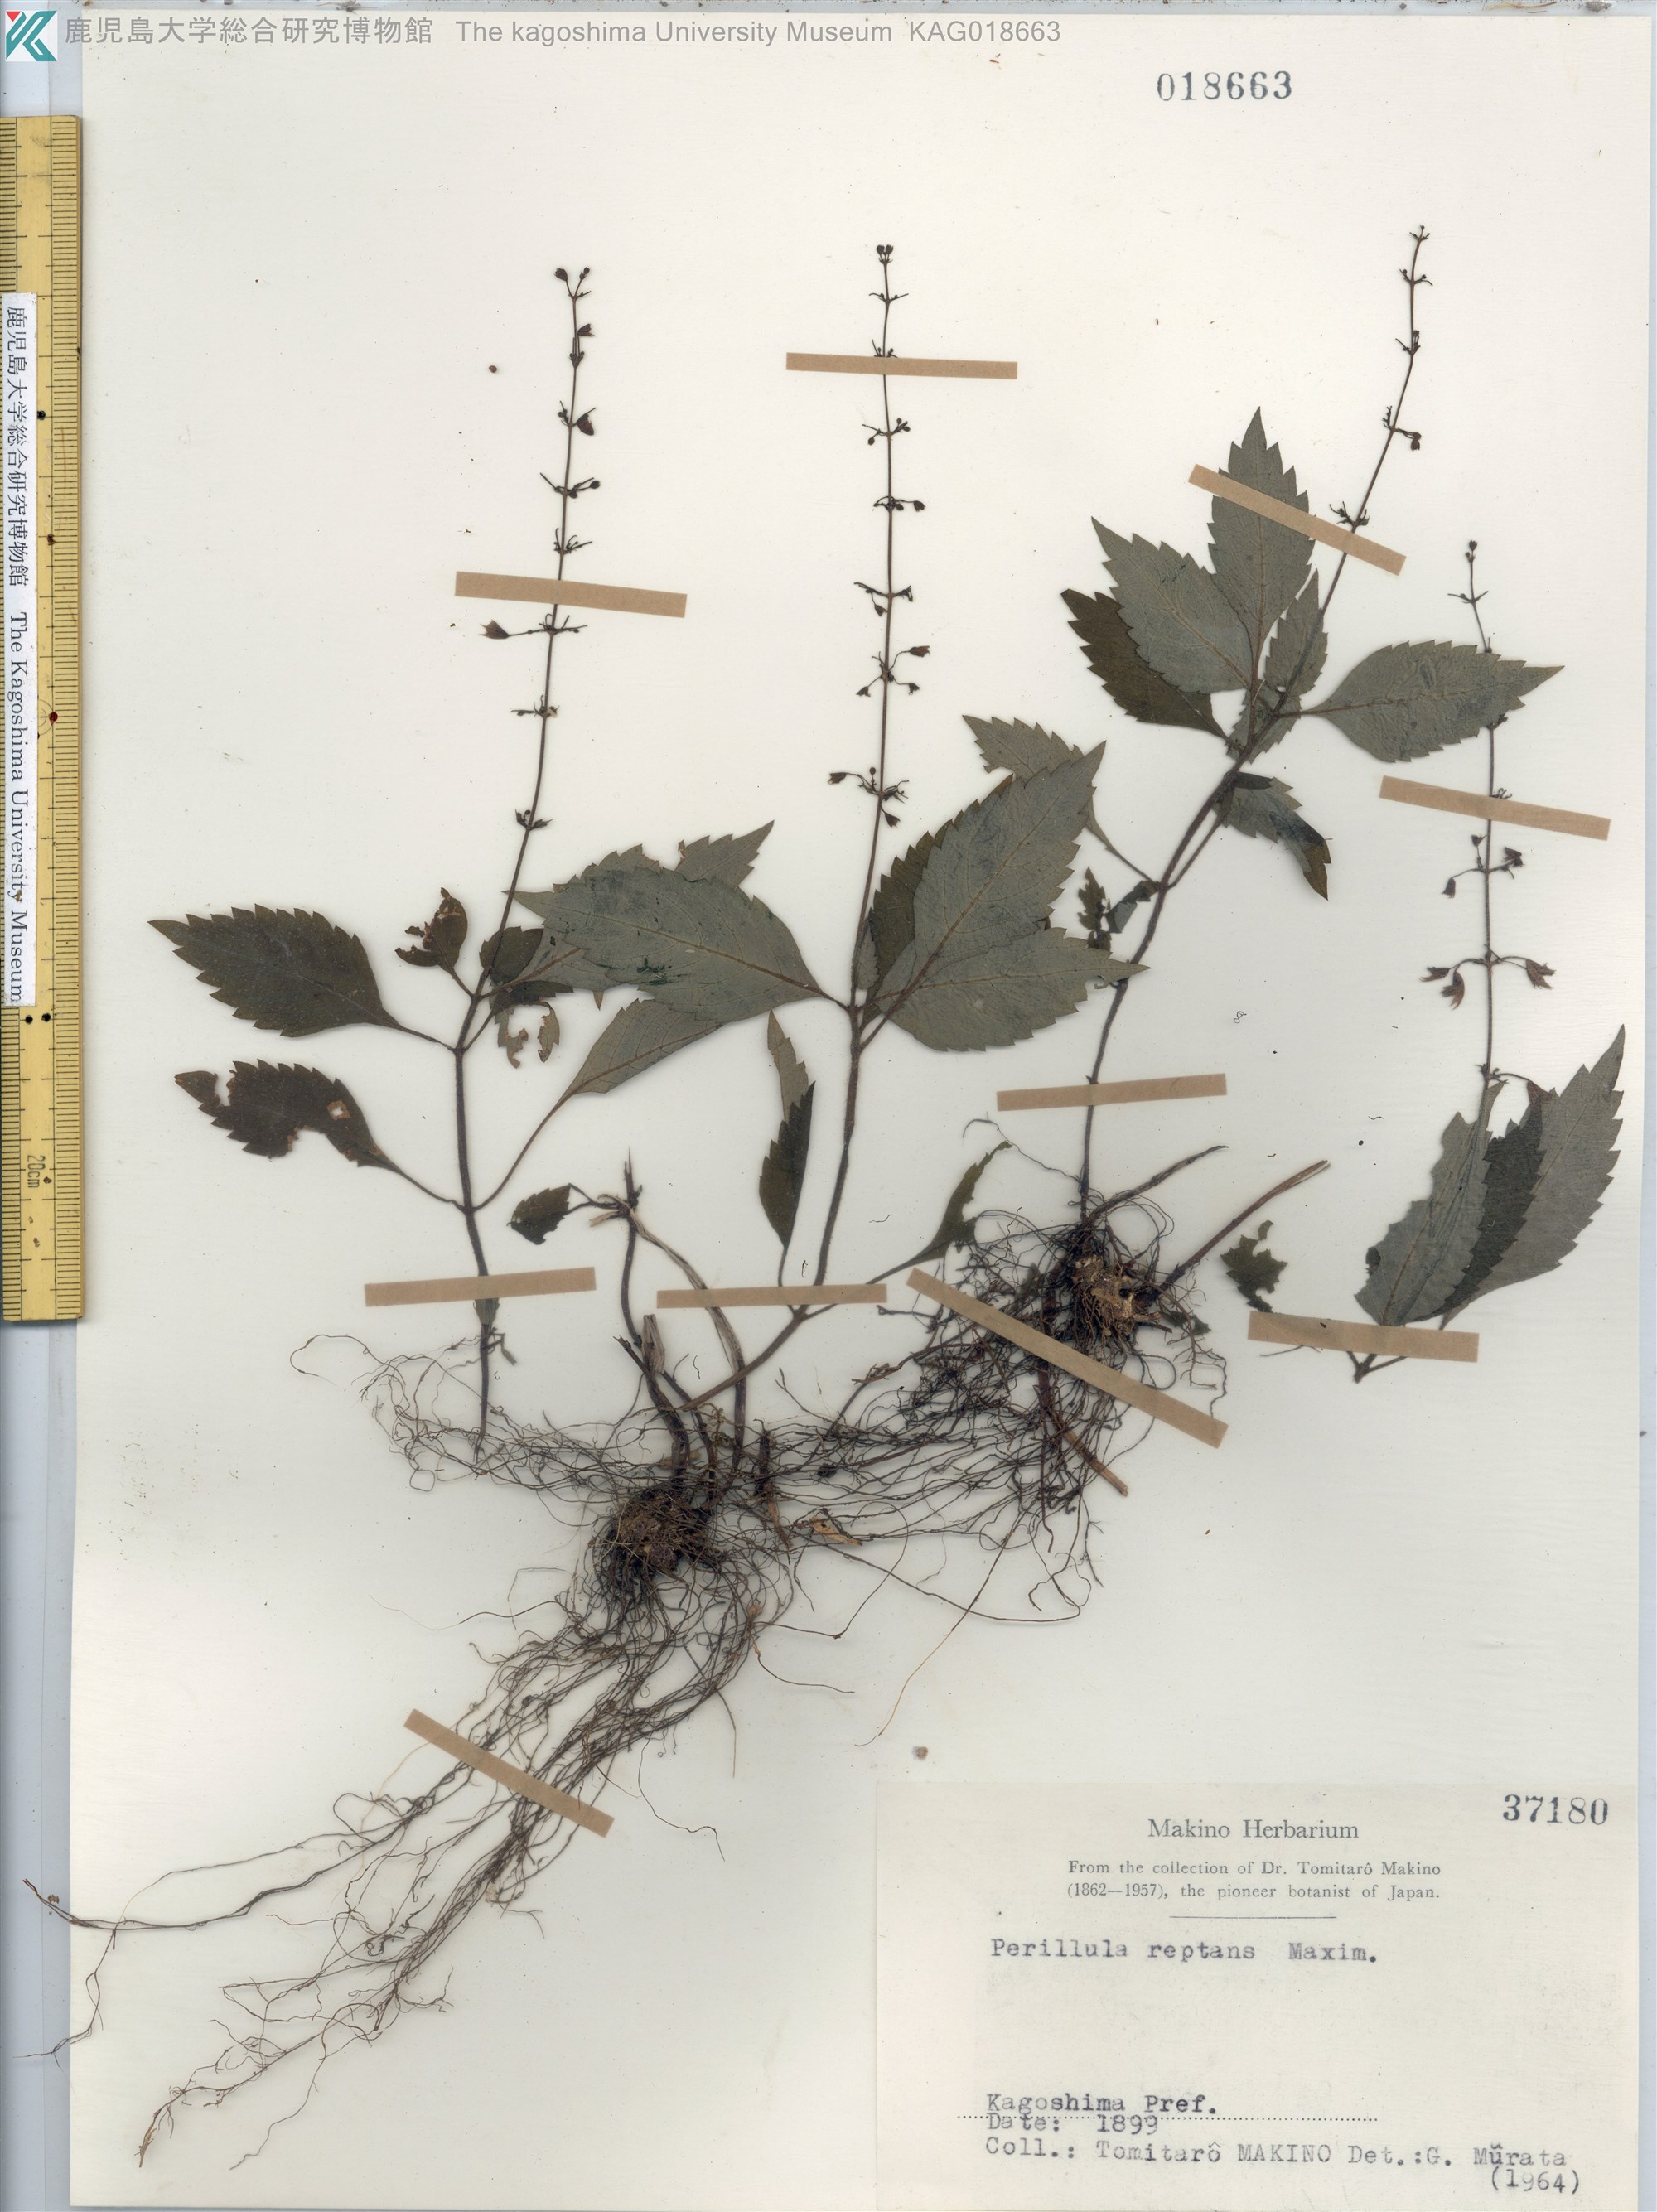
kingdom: Plantae
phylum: Tracheophyta
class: Magnoliopsida
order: Lamiales
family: Lamiaceae
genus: Perillula
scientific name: Perillula reptans
